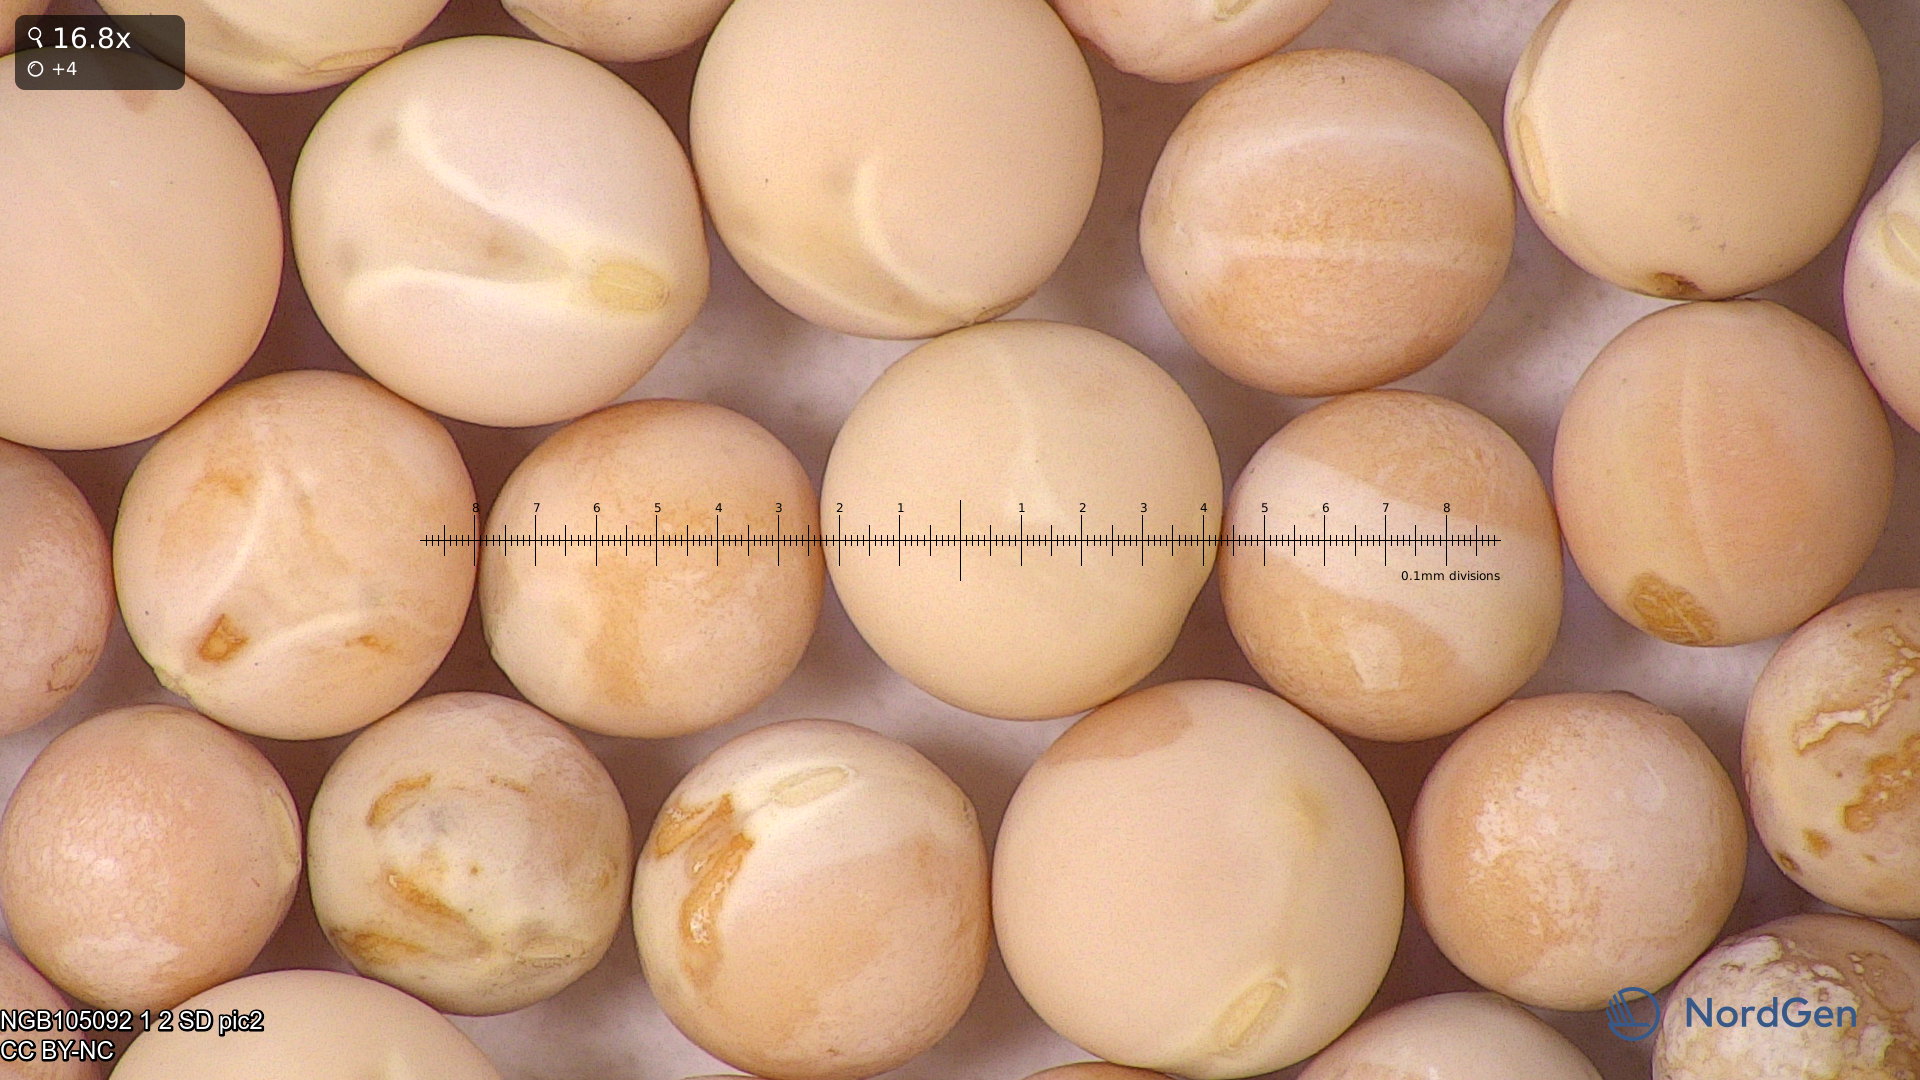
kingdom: Plantae
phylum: Tracheophyta
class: Magnoliopsida
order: Fabales
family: Fabaceae
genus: Lathyrus
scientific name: Lathyrus oleraceus
